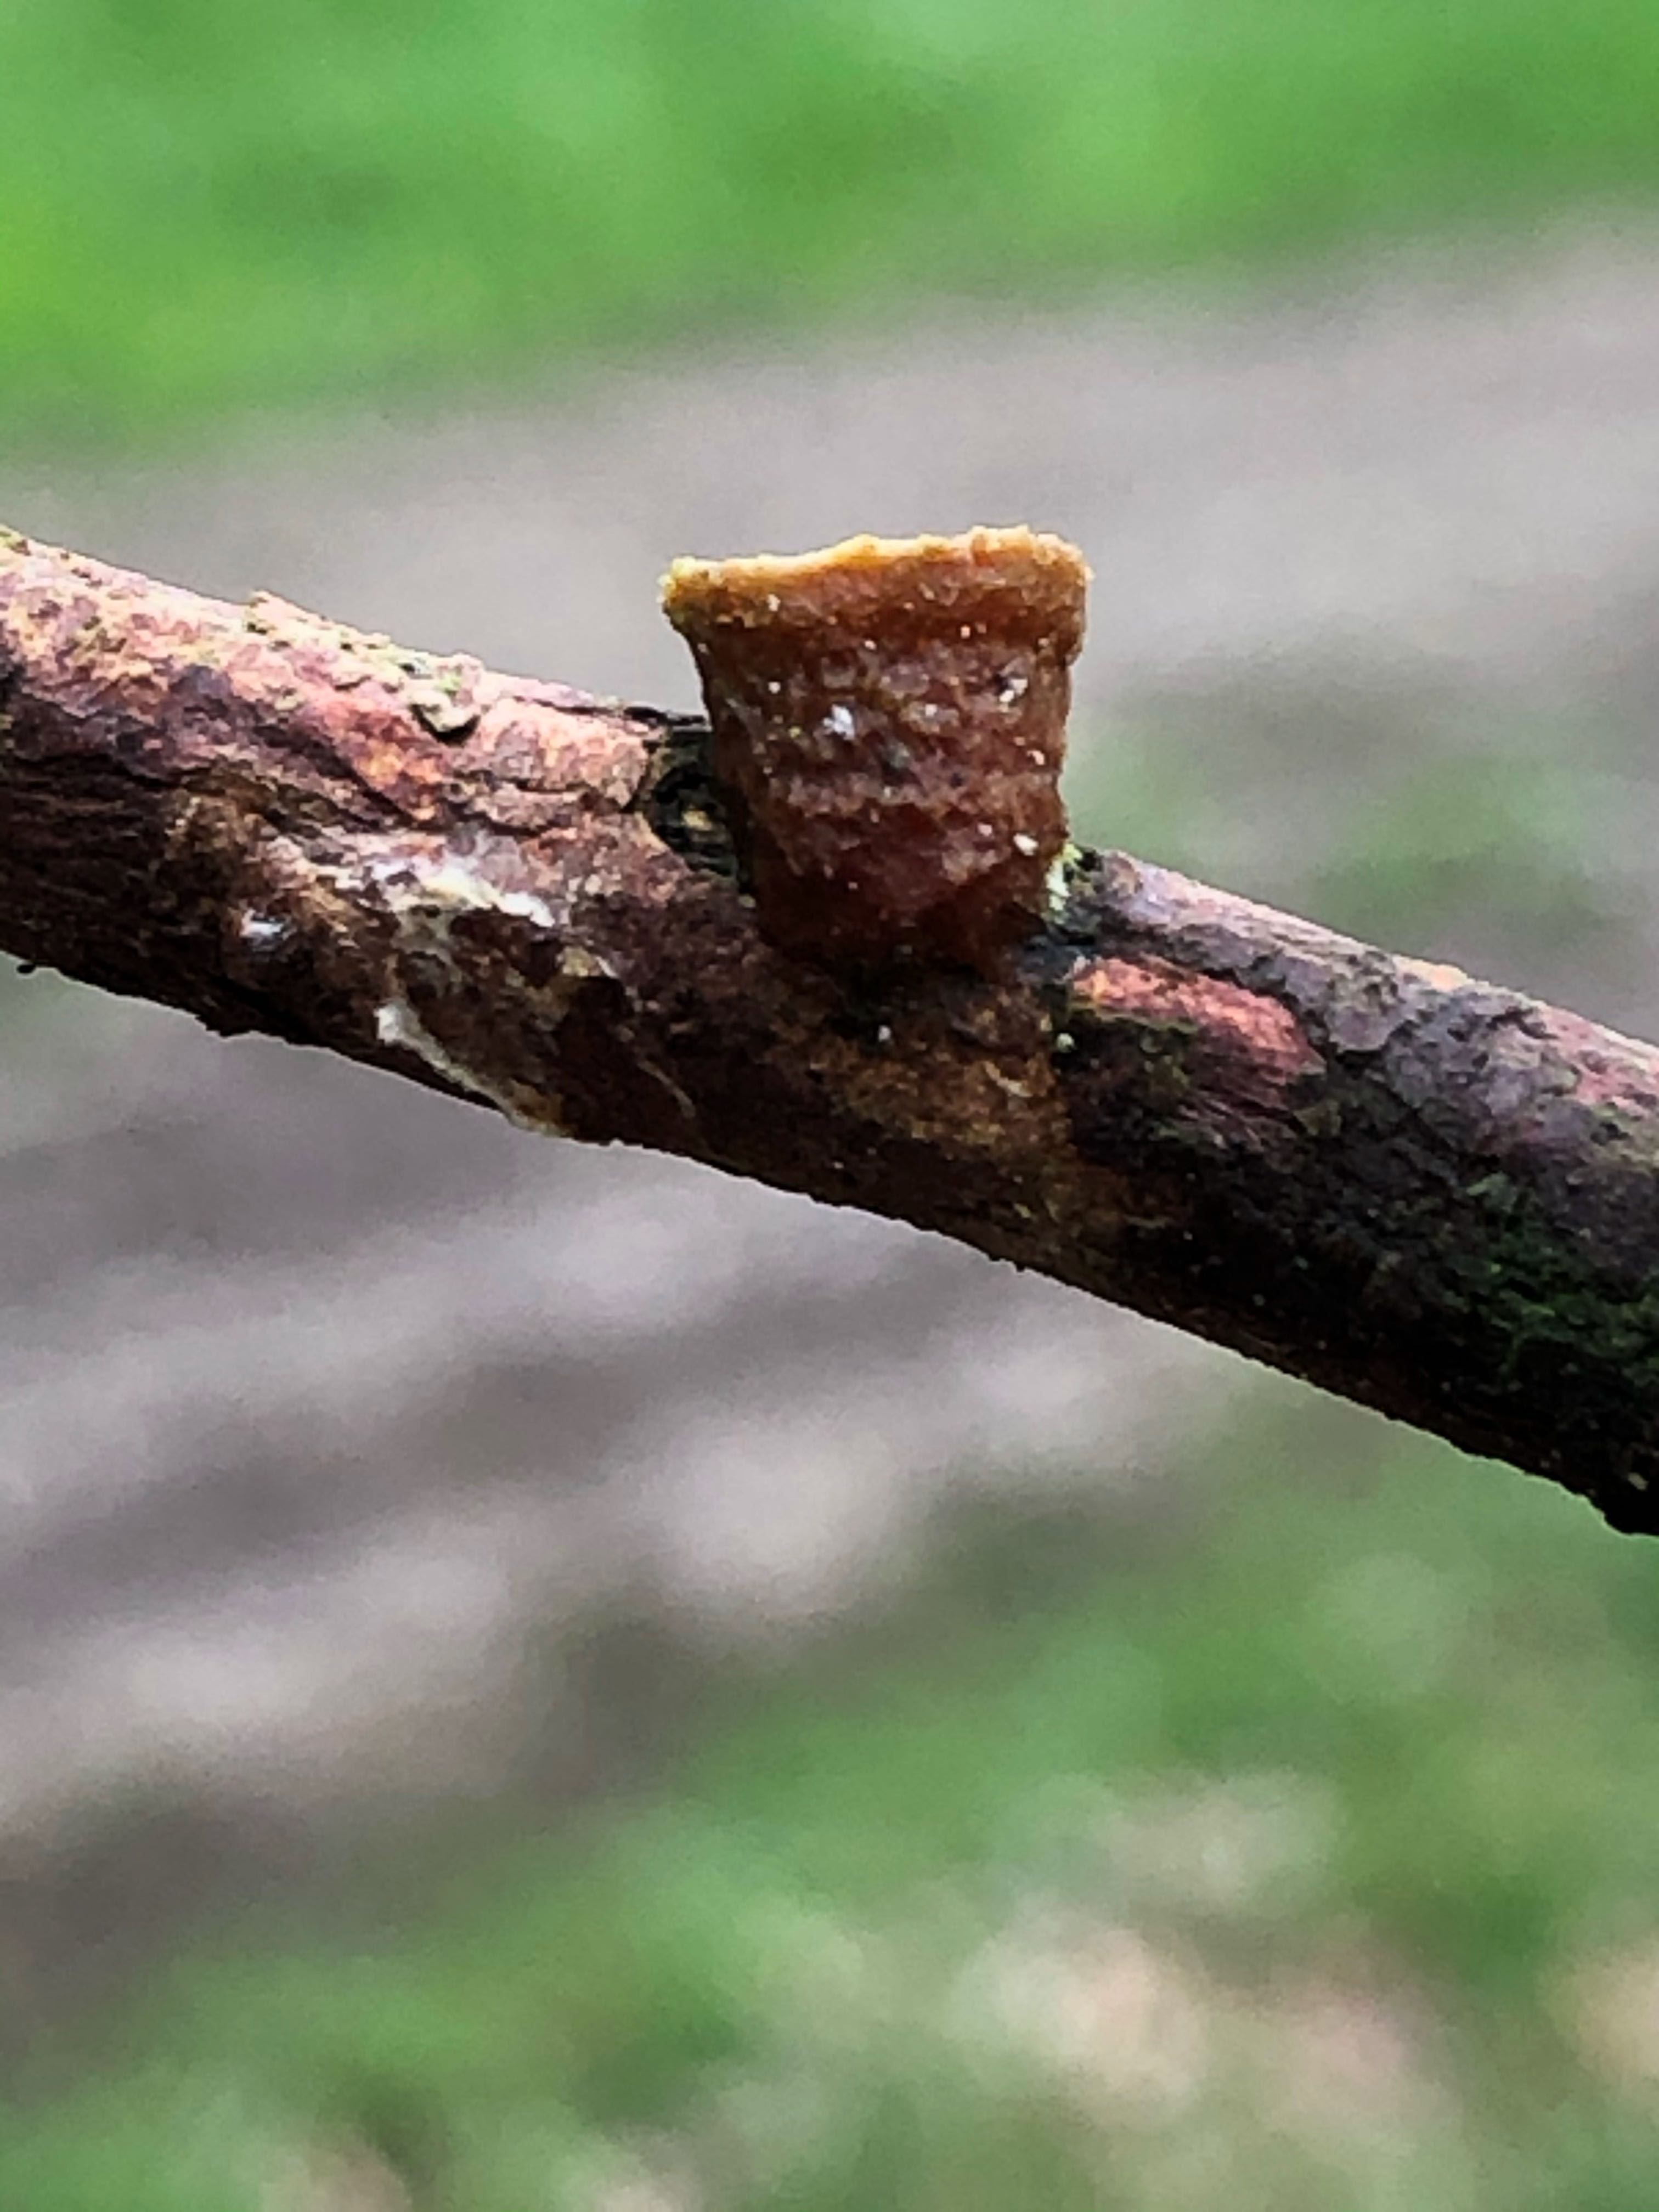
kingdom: Fungi
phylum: Basidiomycota
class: Agaricomycetes
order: Agaricales
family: Nidulariaceae
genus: Crucibulum
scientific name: Crucibulum crucibuliforme
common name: krukkesvamp
